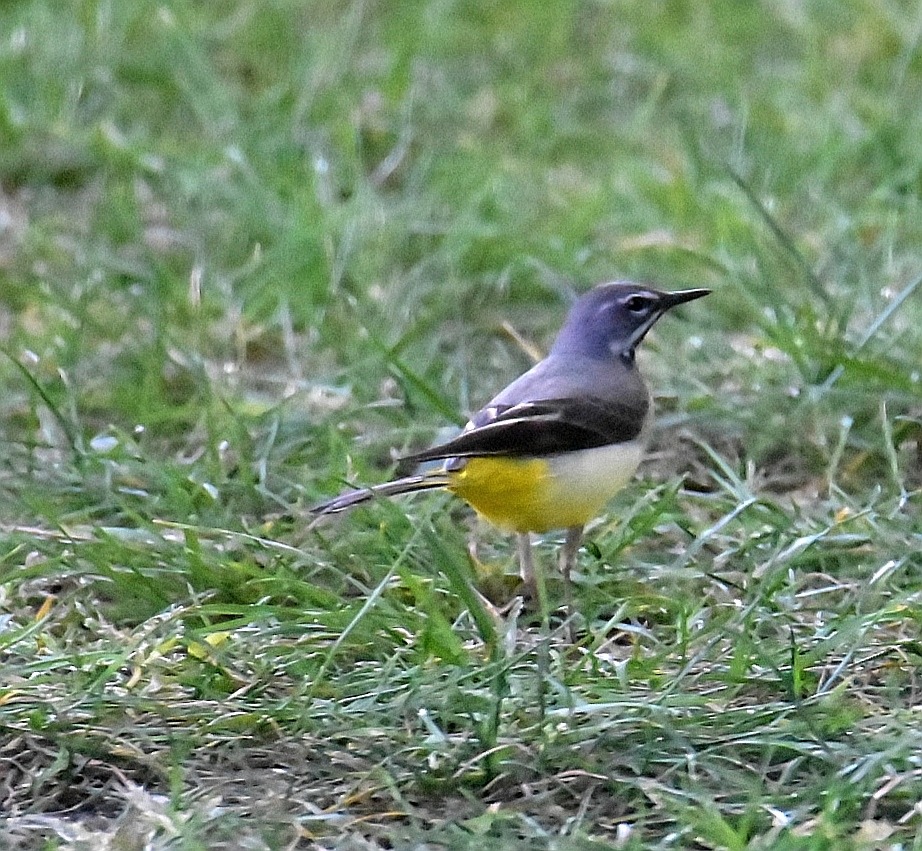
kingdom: Animalia
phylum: Chordata
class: Aves
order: Passeriformes
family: Motacillidae
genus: Motacilla
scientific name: Motacilla cinerea
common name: Bjergvipstjert
